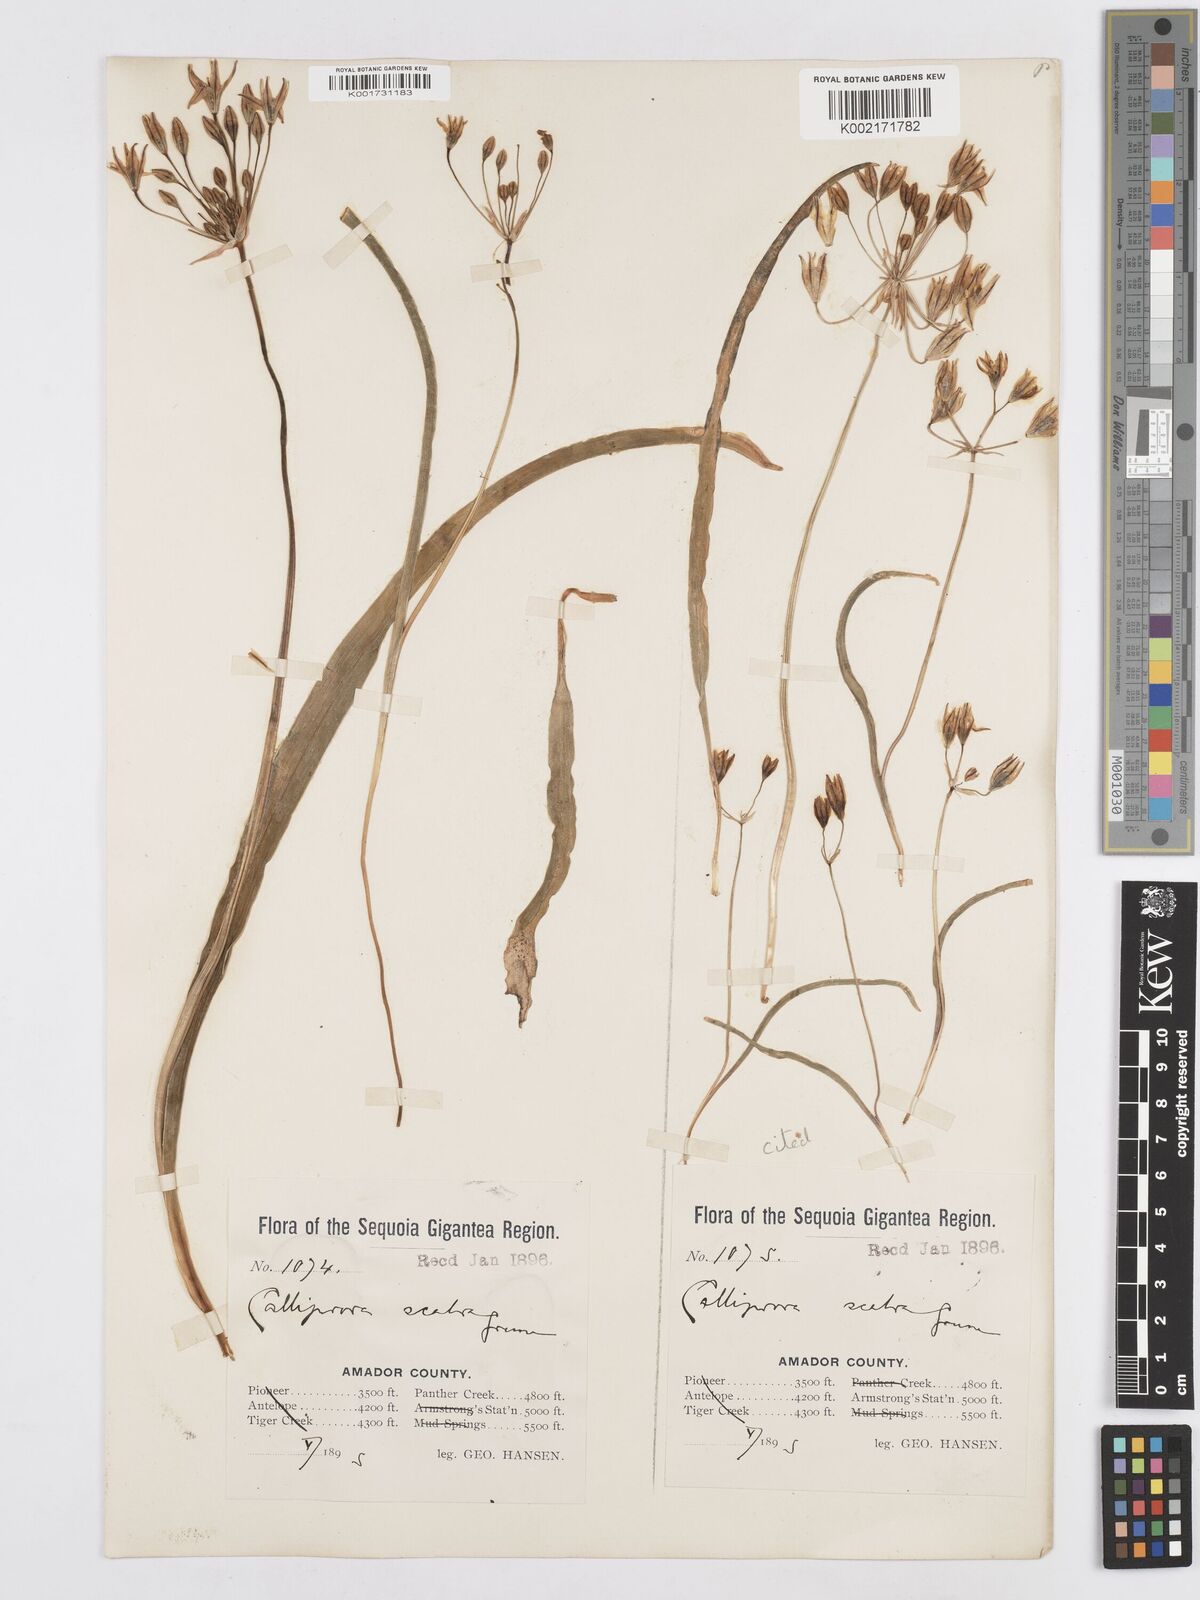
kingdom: Plantae
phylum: Tracheophyta
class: Liliopsida
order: Asparagales
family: Asparagaceae
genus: Triteleia
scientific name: Triteleia ixioides
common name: Yellow-brodiaea
